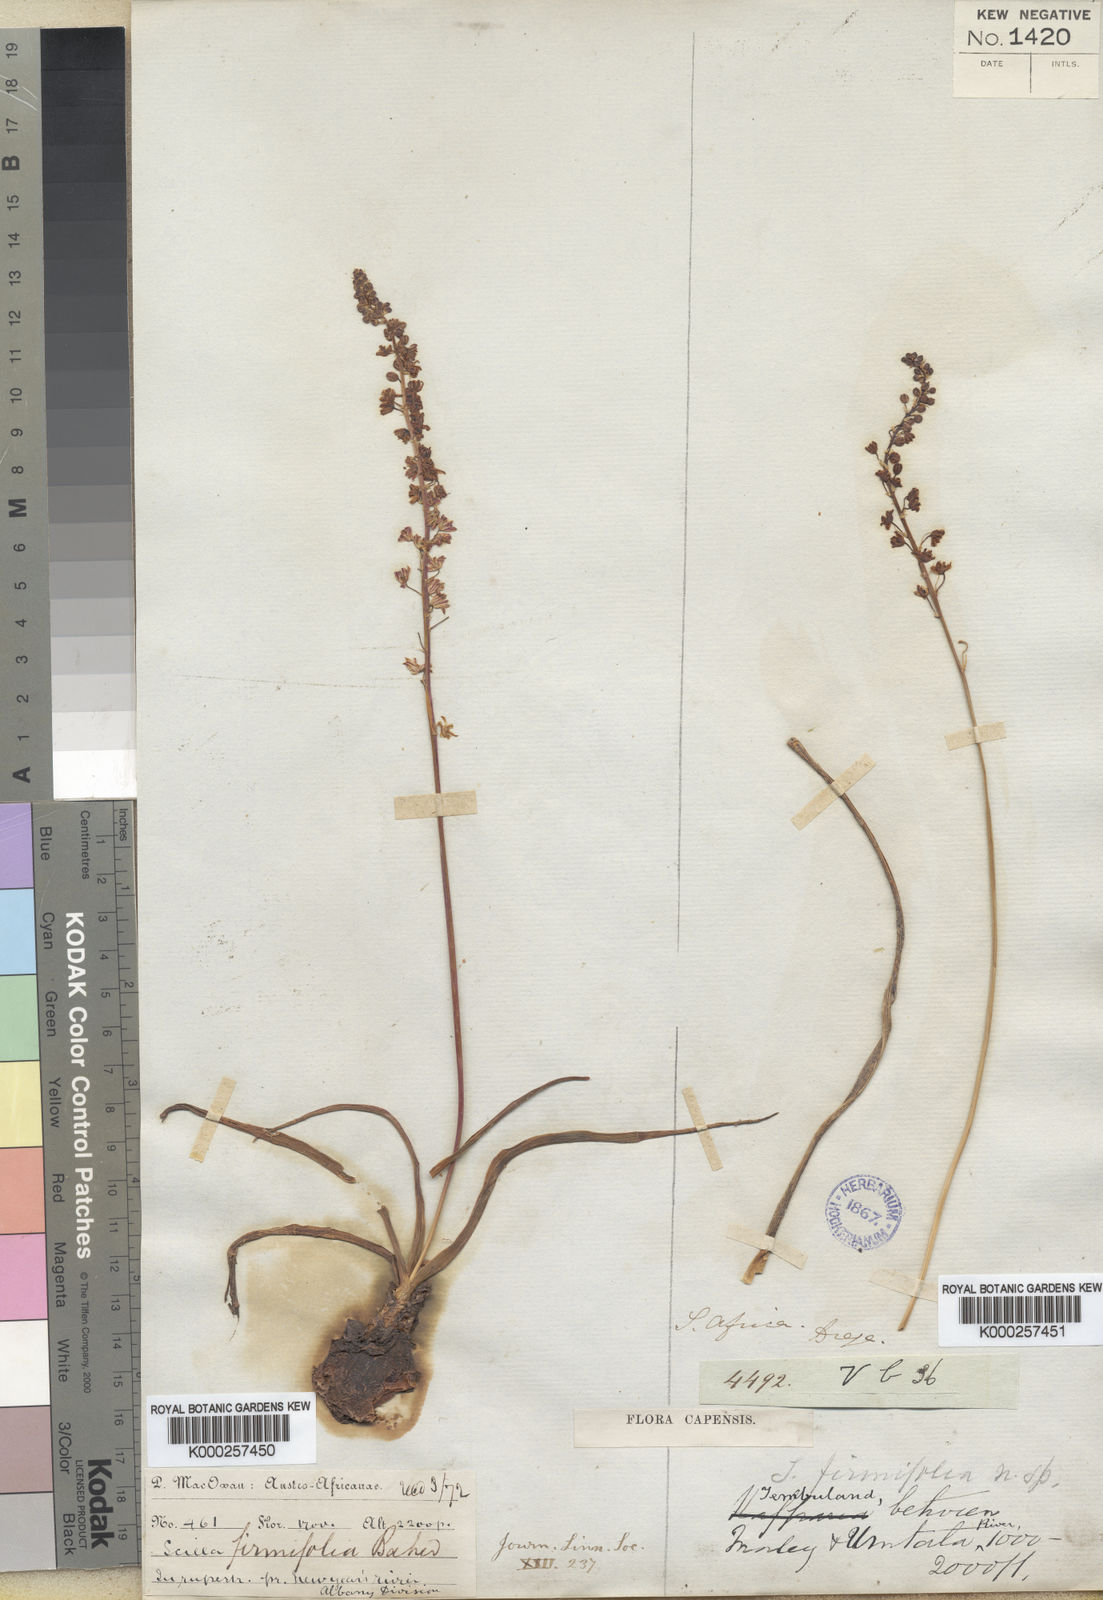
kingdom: Plantae
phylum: Tracheophyta
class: Liliopsida
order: Asparagales
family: Asparagaceae
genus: Pseudoprospero
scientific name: Pseudoprospero firmifolium
